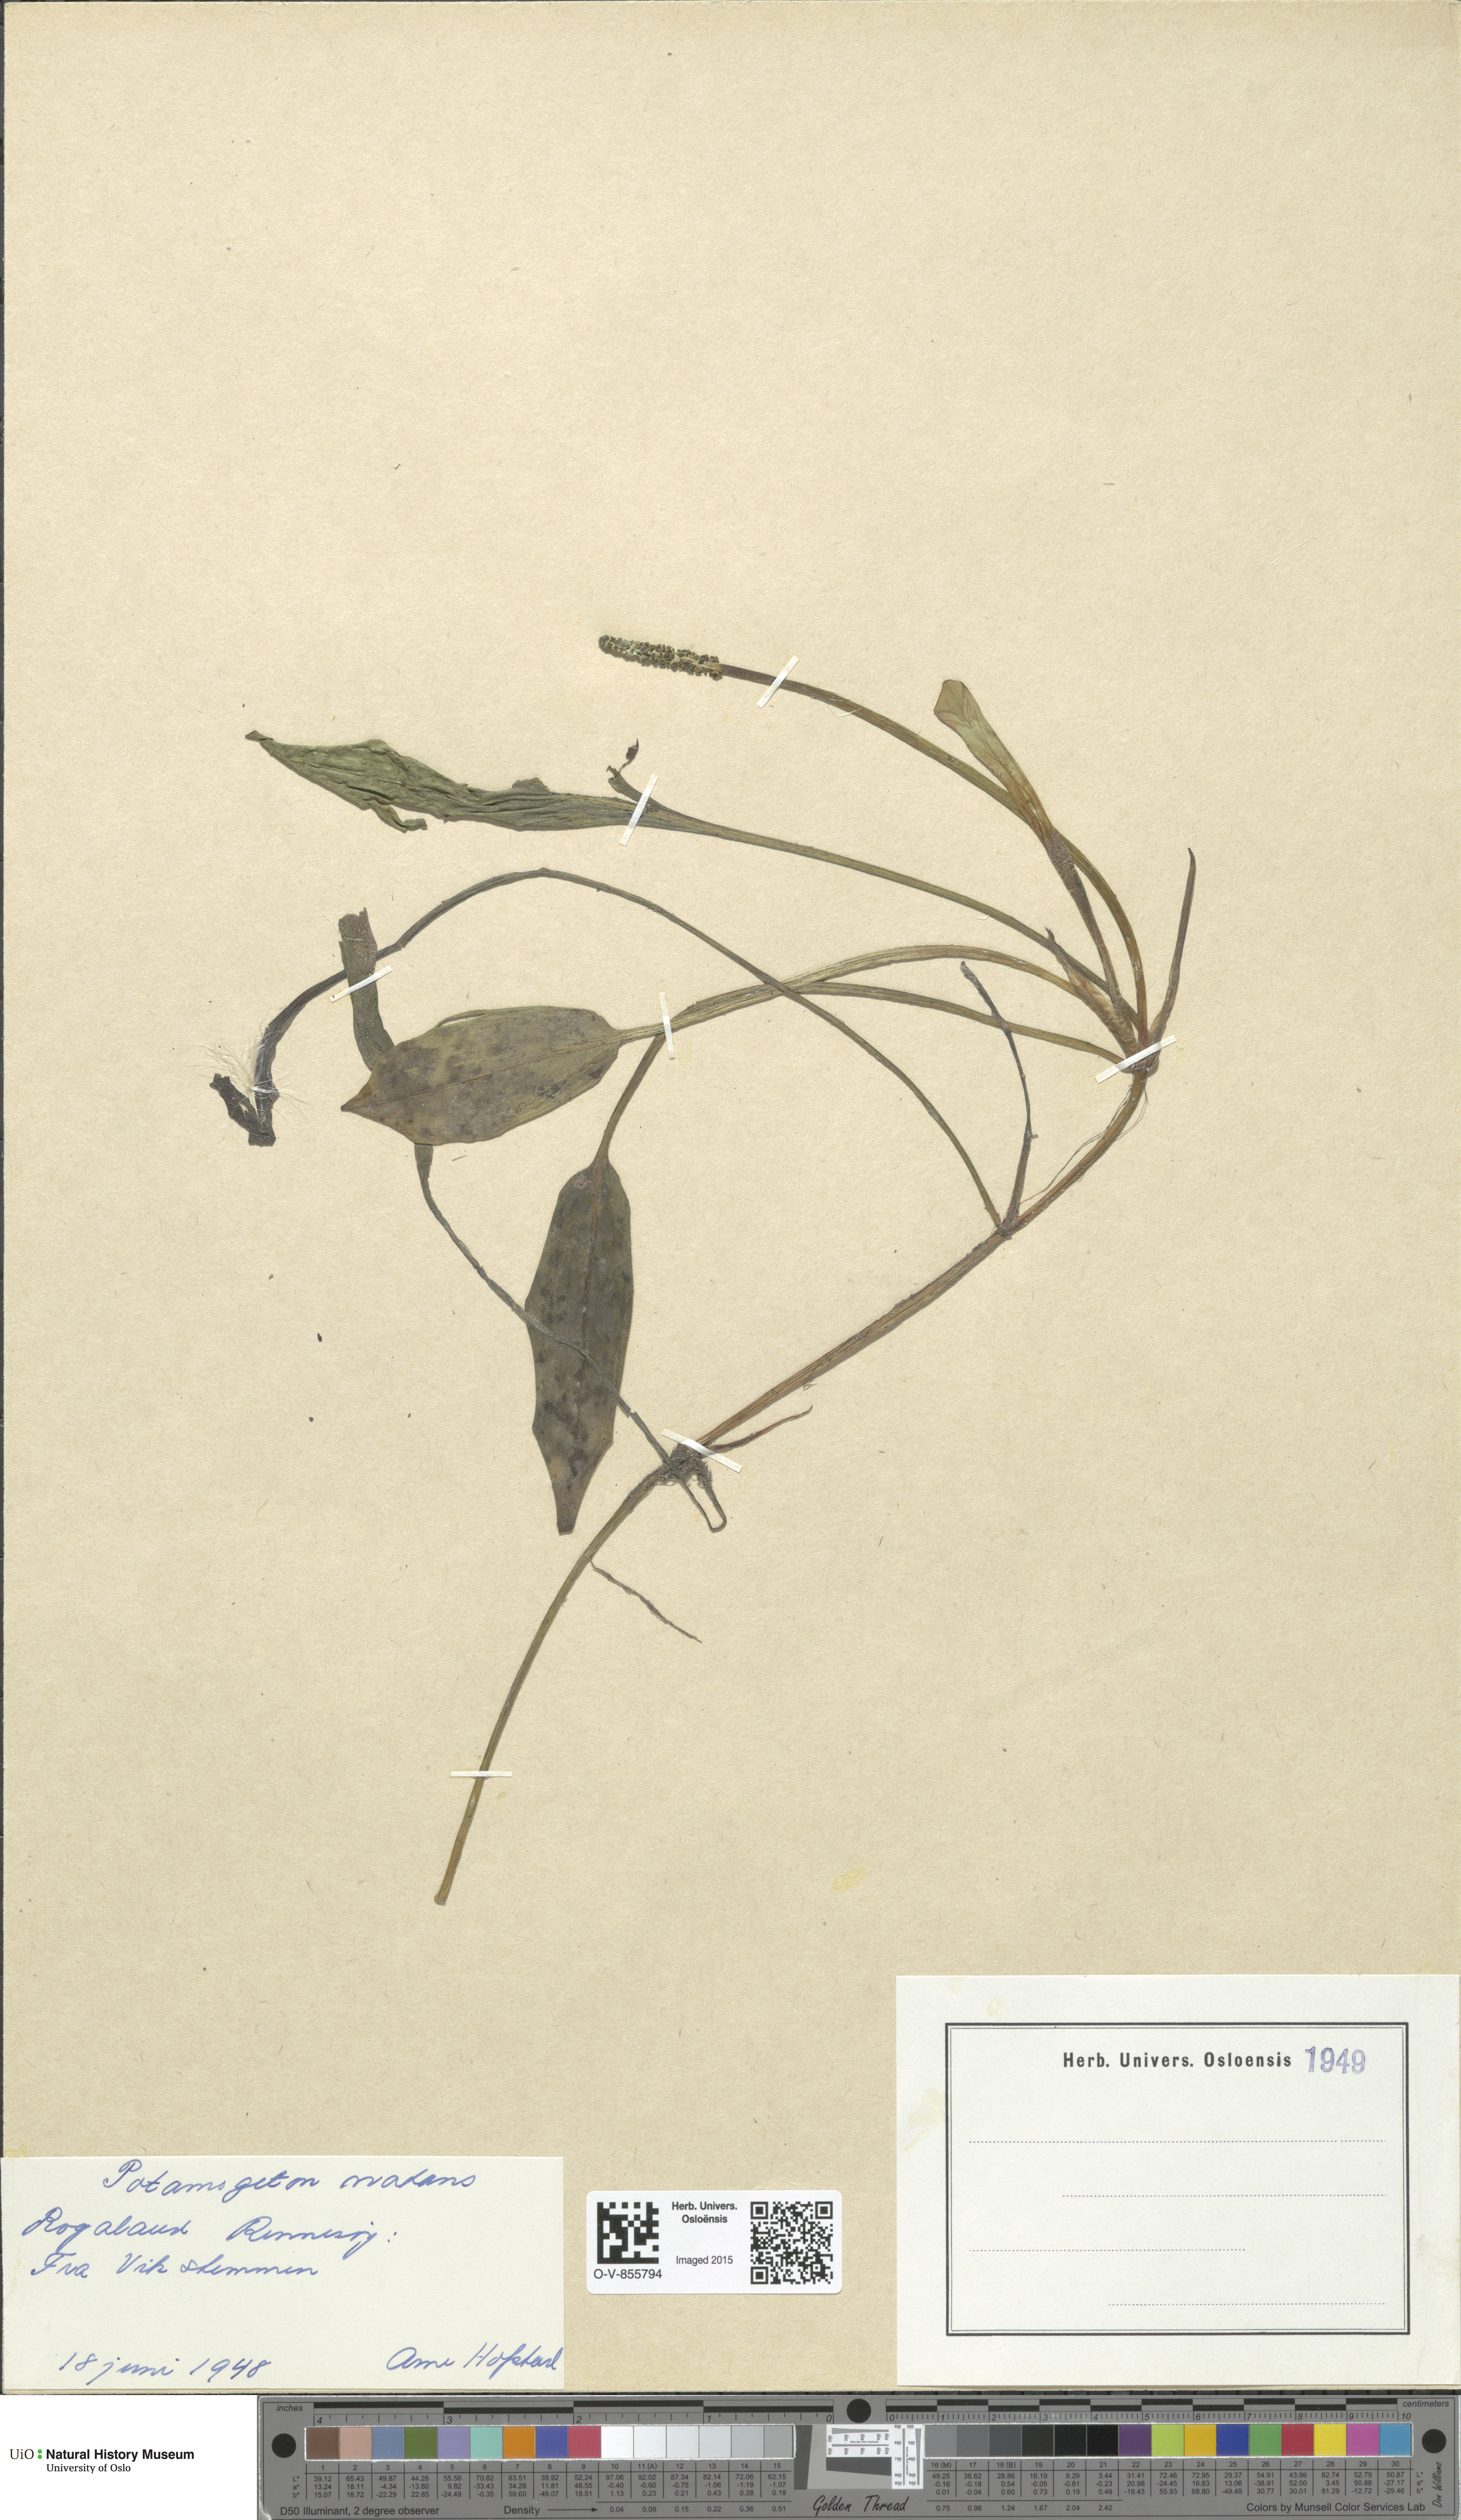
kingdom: Plantae
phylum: Tracheophyta
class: Liliopsida
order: Alismatales
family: Potamogetonaceae
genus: Potamogeton
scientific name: Potamogeton polygonifolius
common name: Bog pondweed
